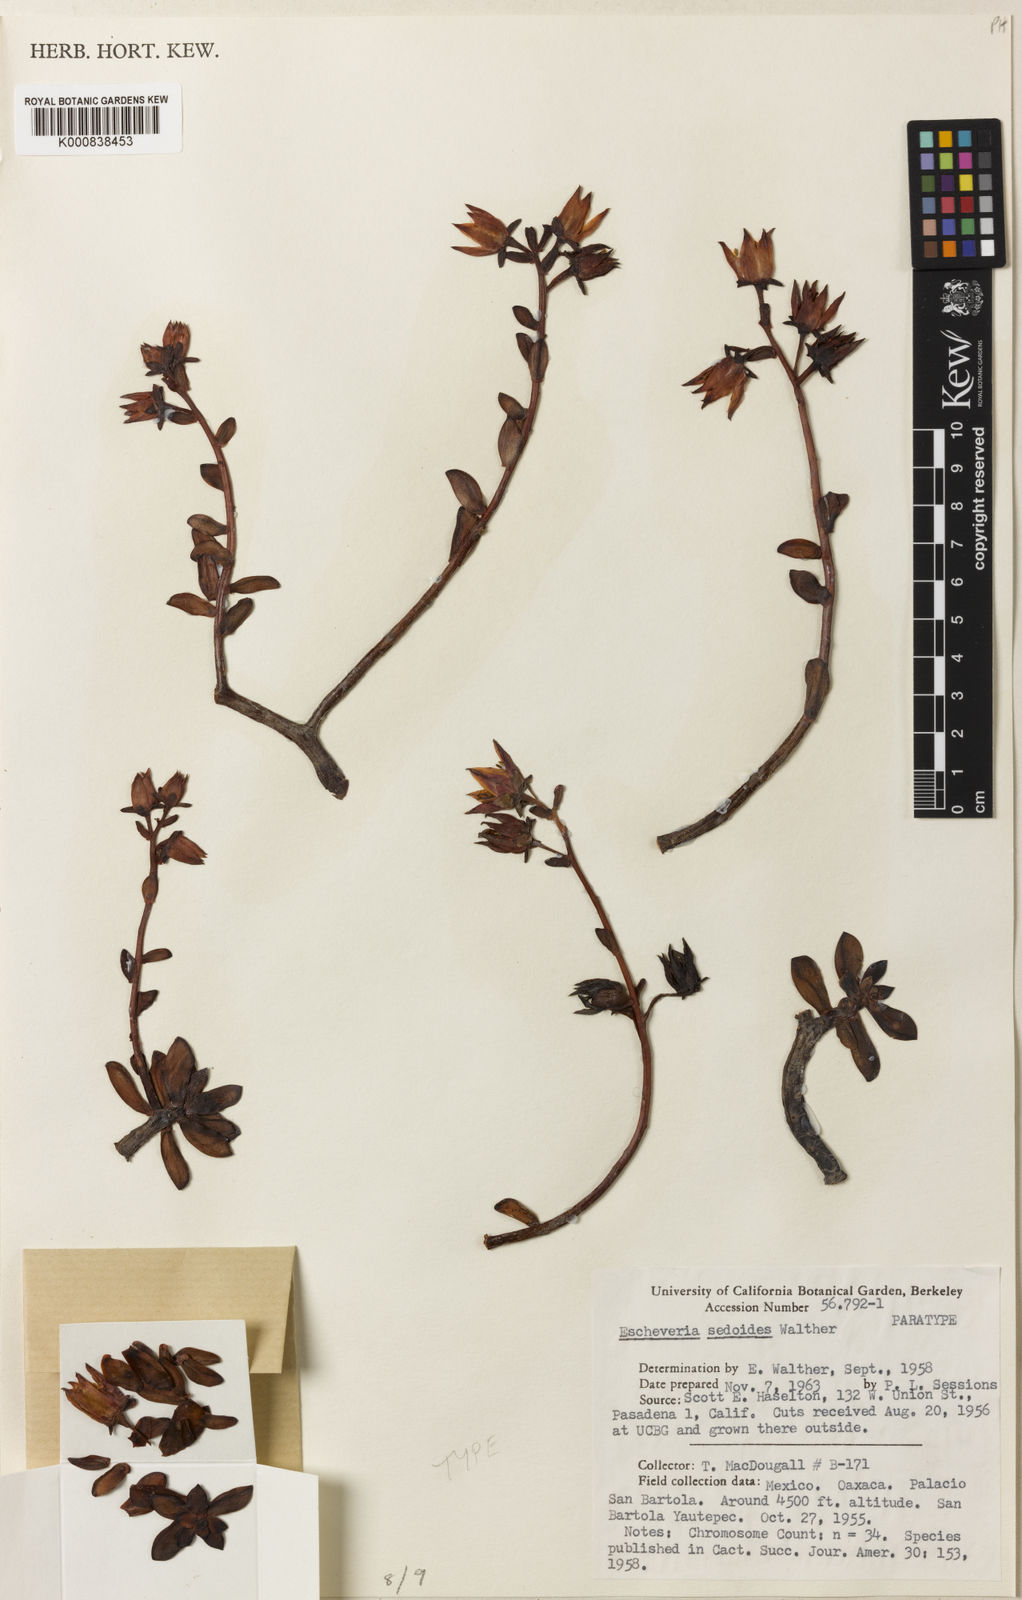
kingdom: Plantae
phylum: Tracheophyta
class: Magnoliopsida
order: Saxifragales
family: Crassulaceae
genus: Echeveria
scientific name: Echeveria macdougallii
